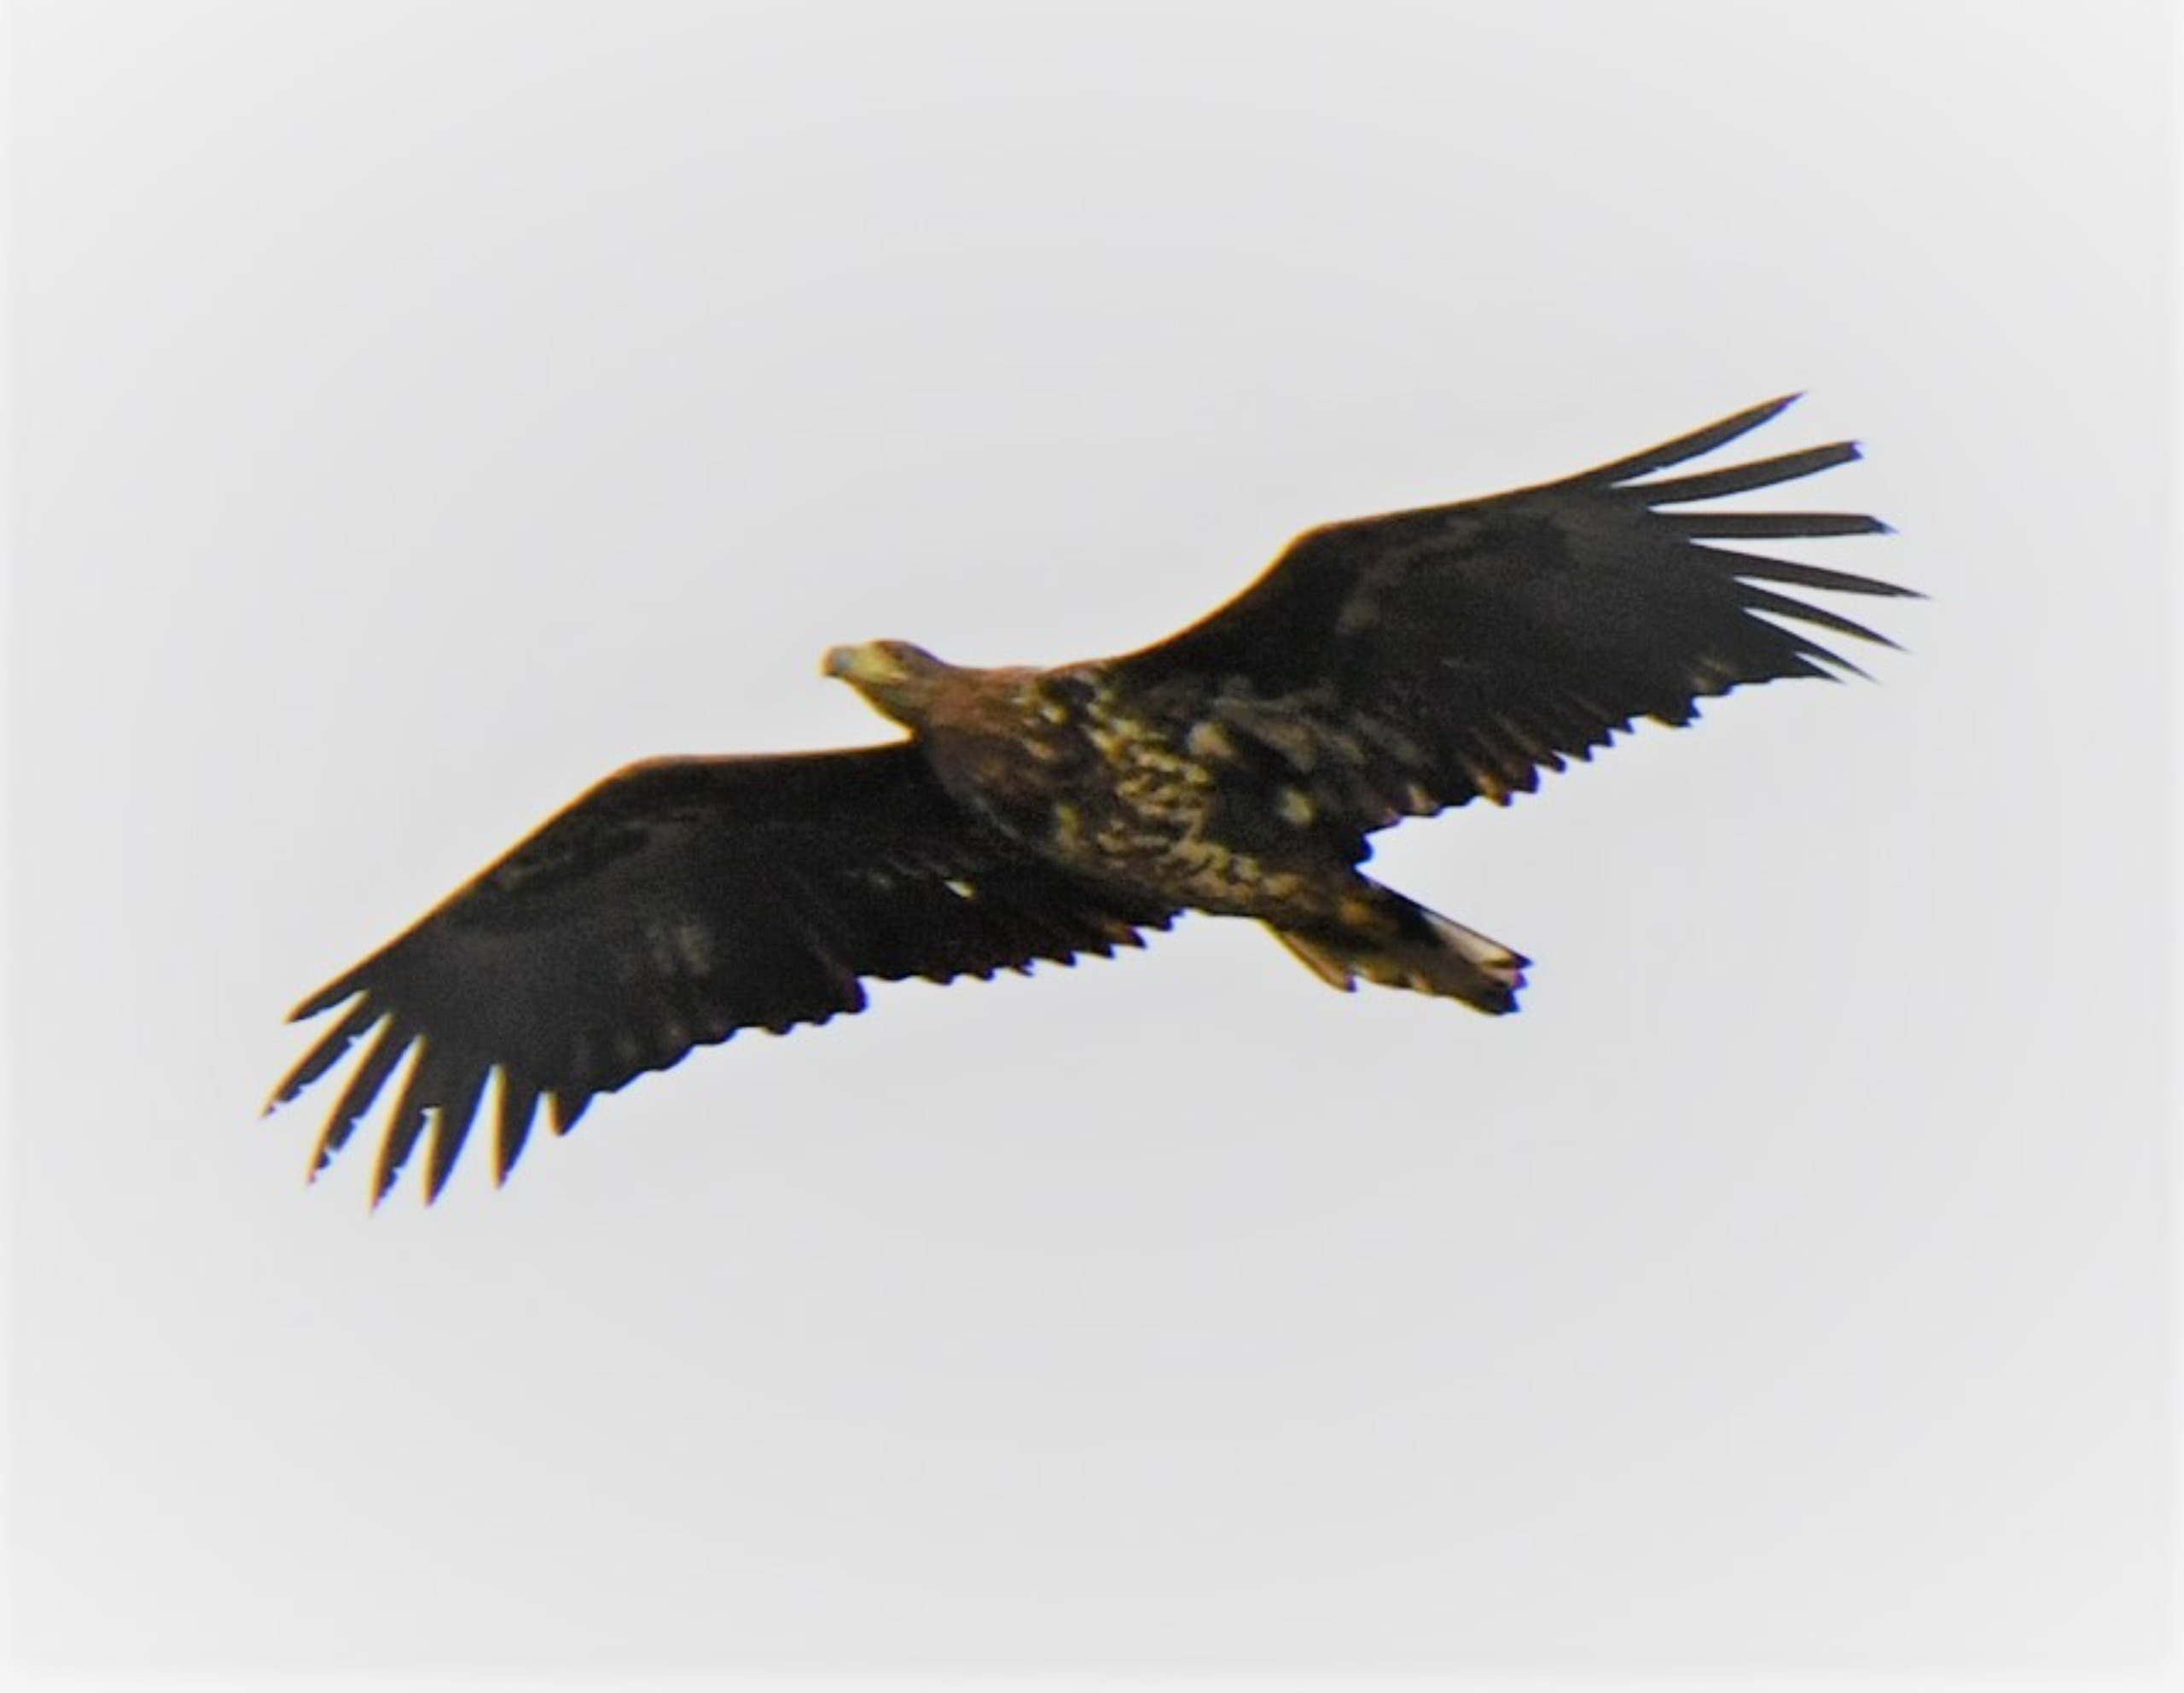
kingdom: Animalia
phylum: Chordata
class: Aves
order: Accipitriformes
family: Accipitridae
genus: Haliaeetus
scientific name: Haliaeetus albicilla
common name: Havørn
